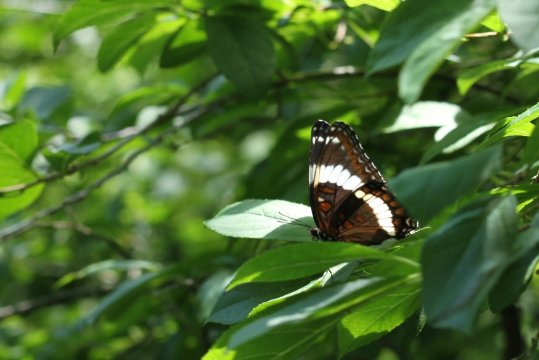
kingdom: Animalia
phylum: Arthropoda
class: Insecta
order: Lepidoptera
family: Nymphalidae
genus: Limenitis
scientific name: Limenitis arthemis
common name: Red-spotted Admiral
